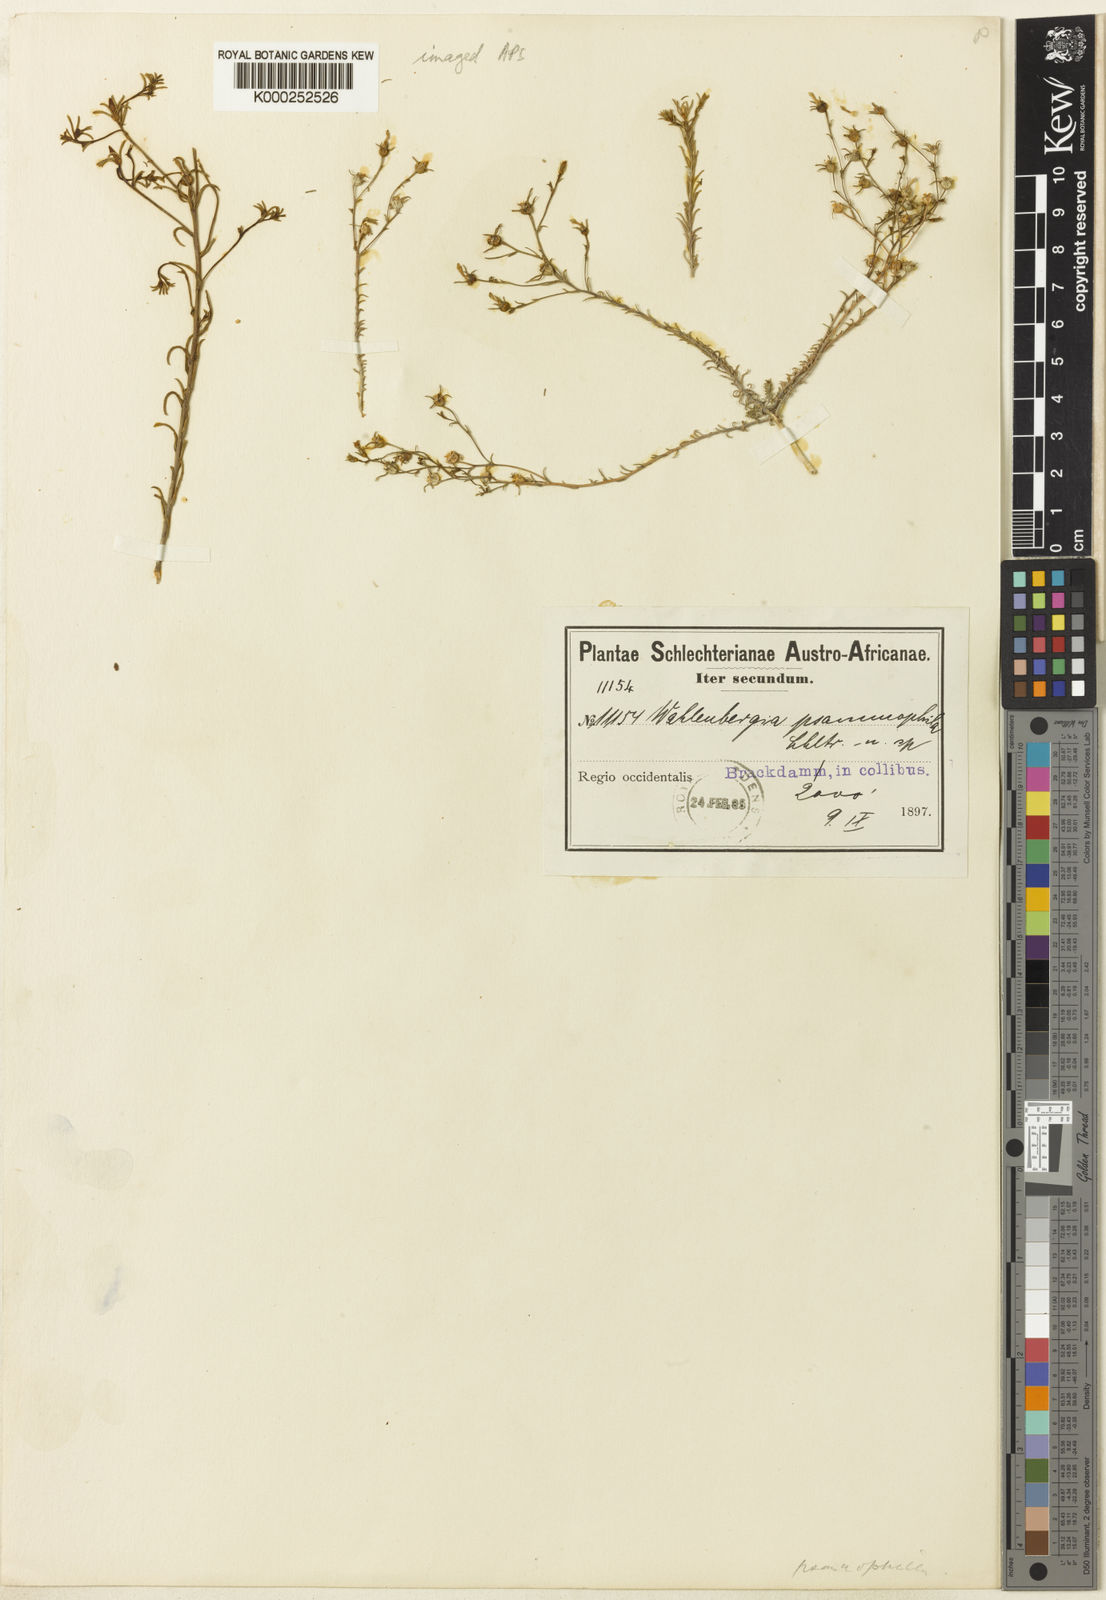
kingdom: Plantae
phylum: Tracheophyta
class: Magnoliopsida
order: Asterales
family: Campanulaceae
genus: Wahlenbergia
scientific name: Wahlenbergia psammophila
